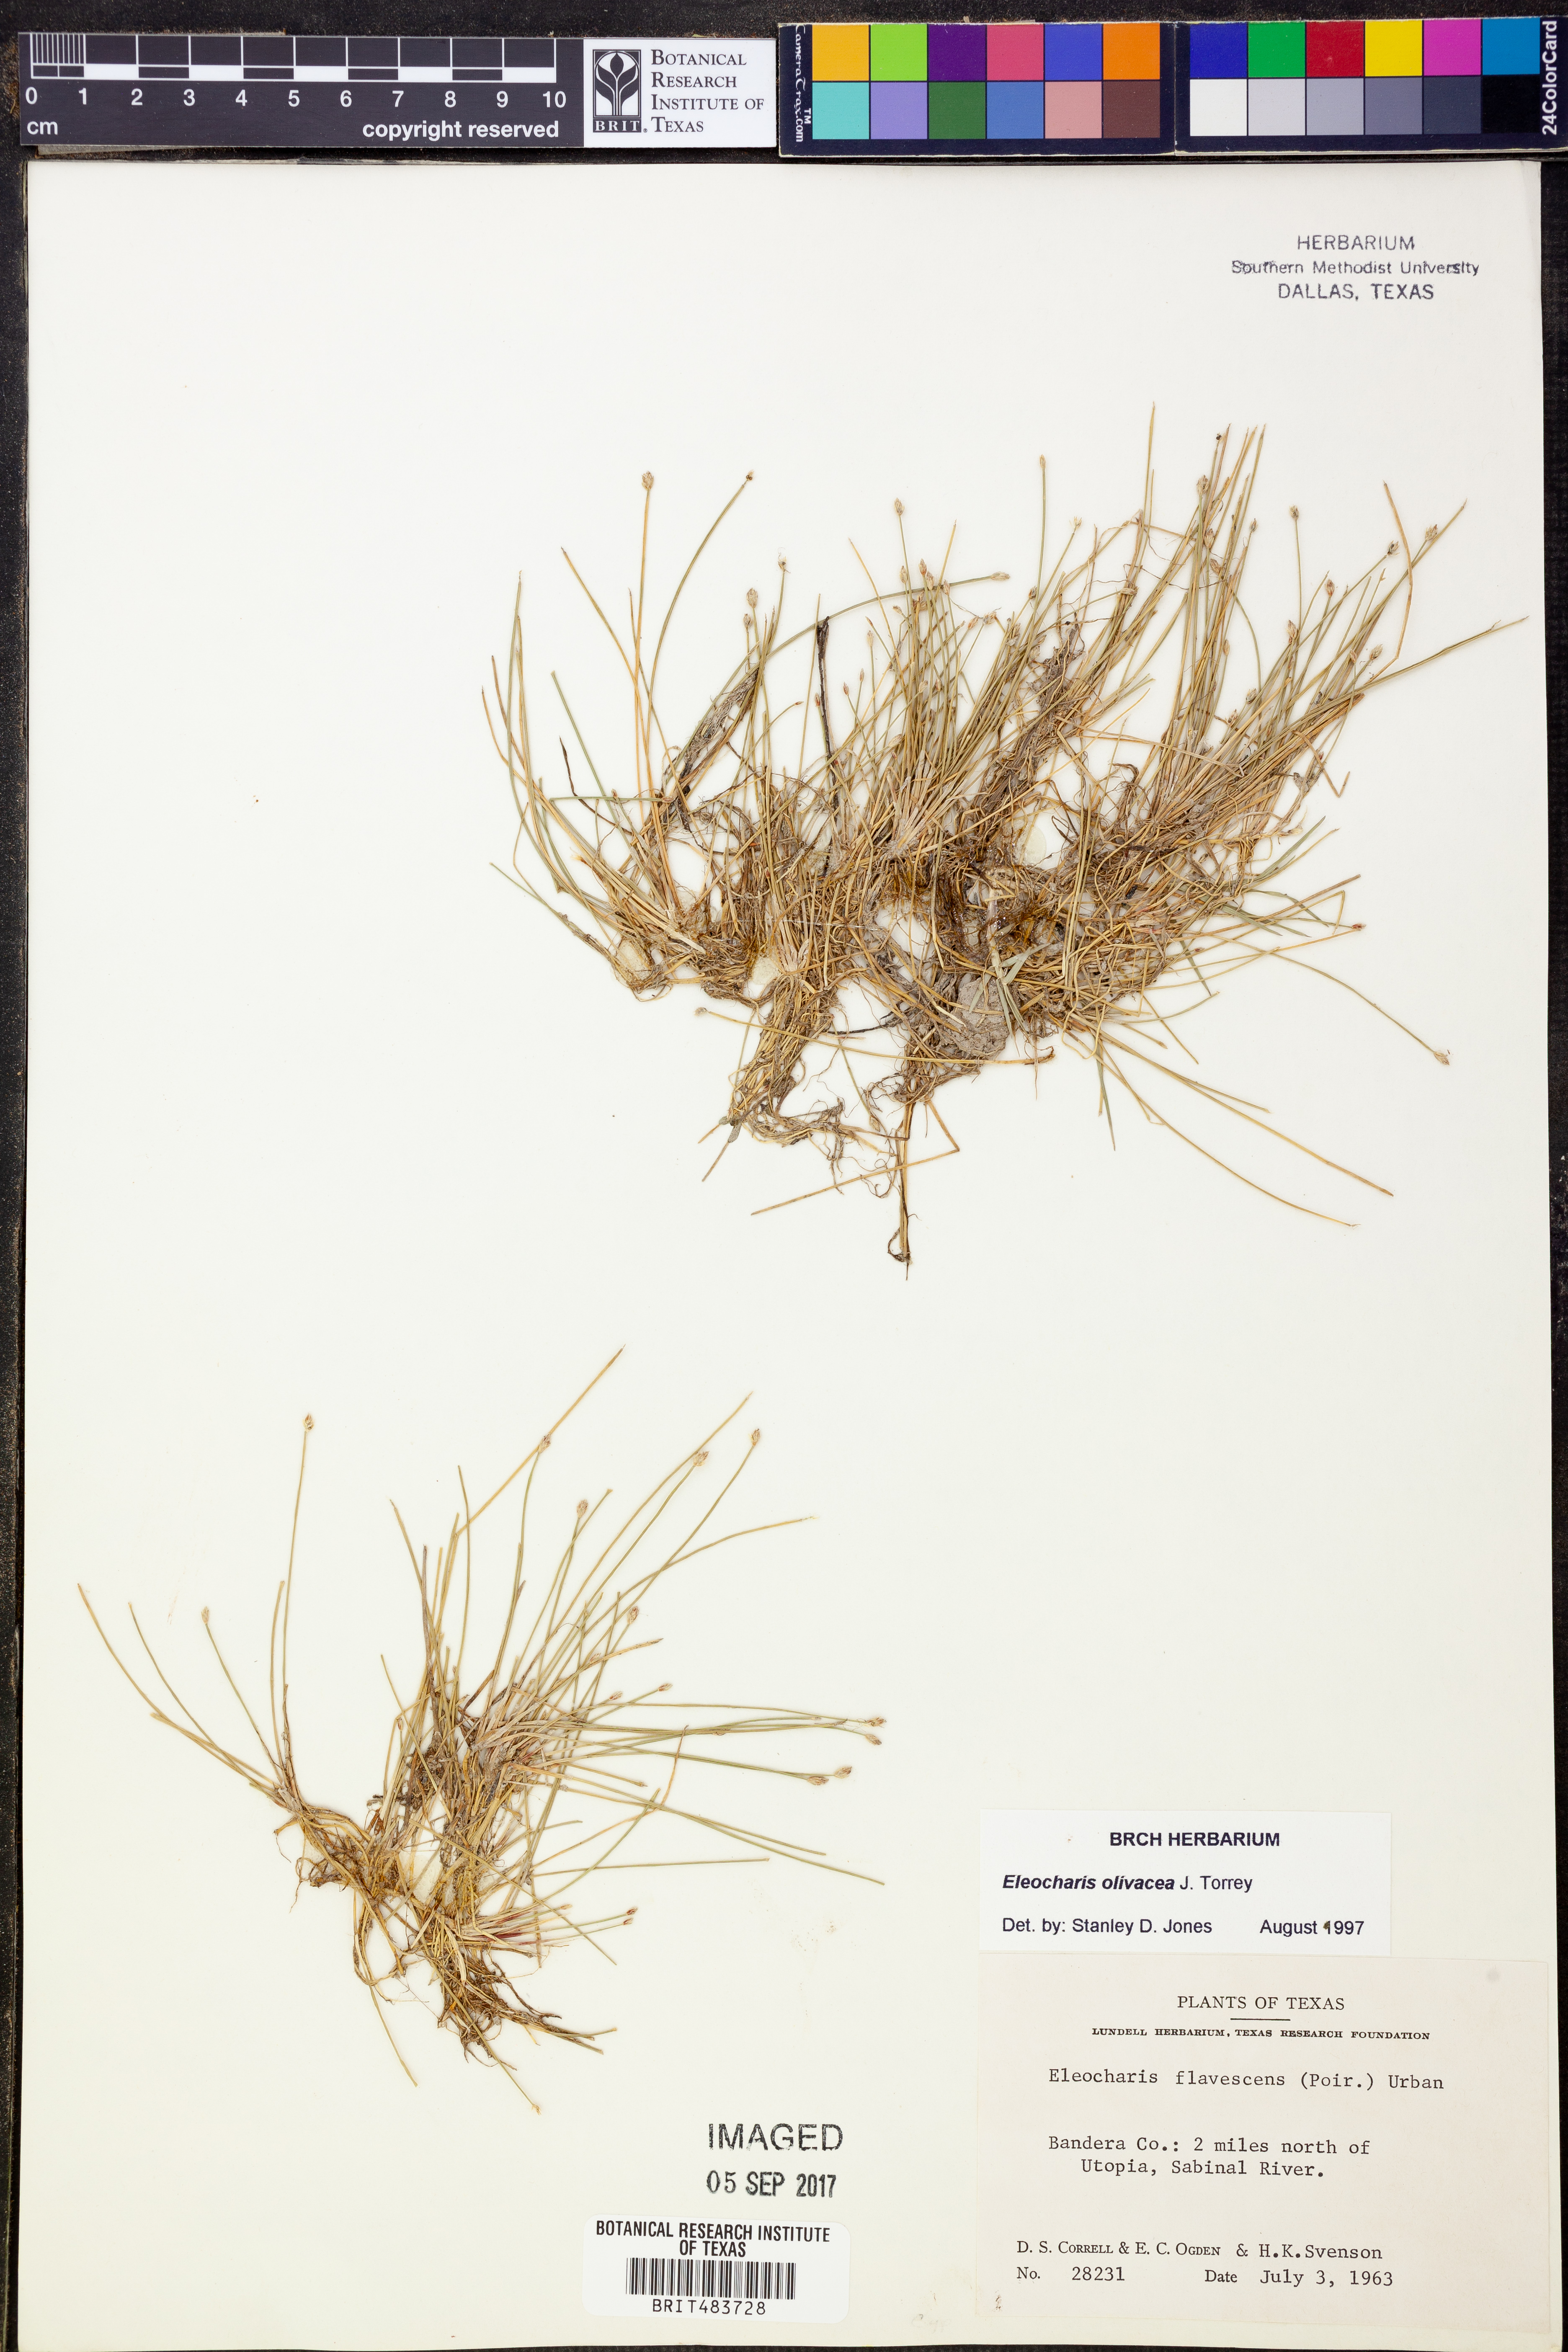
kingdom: Plantae
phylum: Tracheophyta
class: Liliopsida
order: Poales
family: Cyperaceae
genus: Eleocharis
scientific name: Eleocharis flavescens
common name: Yellow spikerush
